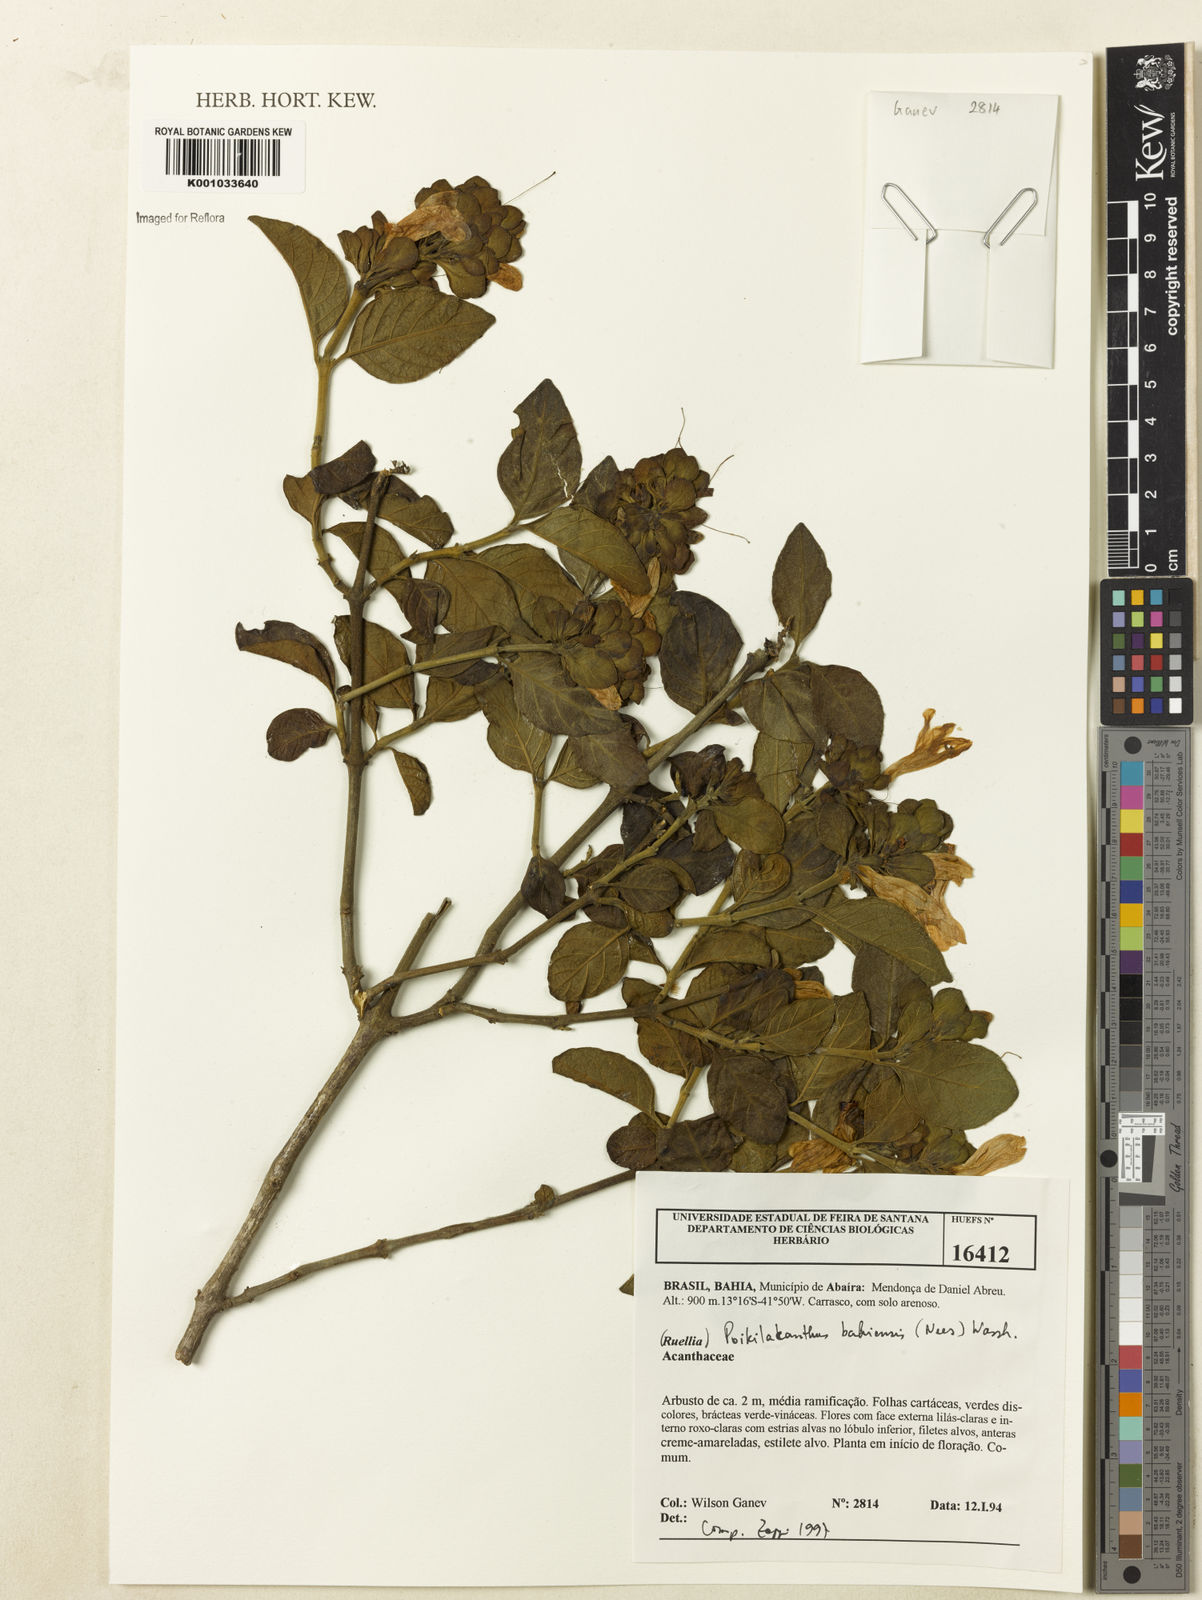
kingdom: Plantae
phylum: Tracheophyta
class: Magnoliopsida
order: Lamiales
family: Acanthaceae
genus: Poikilacanthus
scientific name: Poikilacanthus bahiensis
